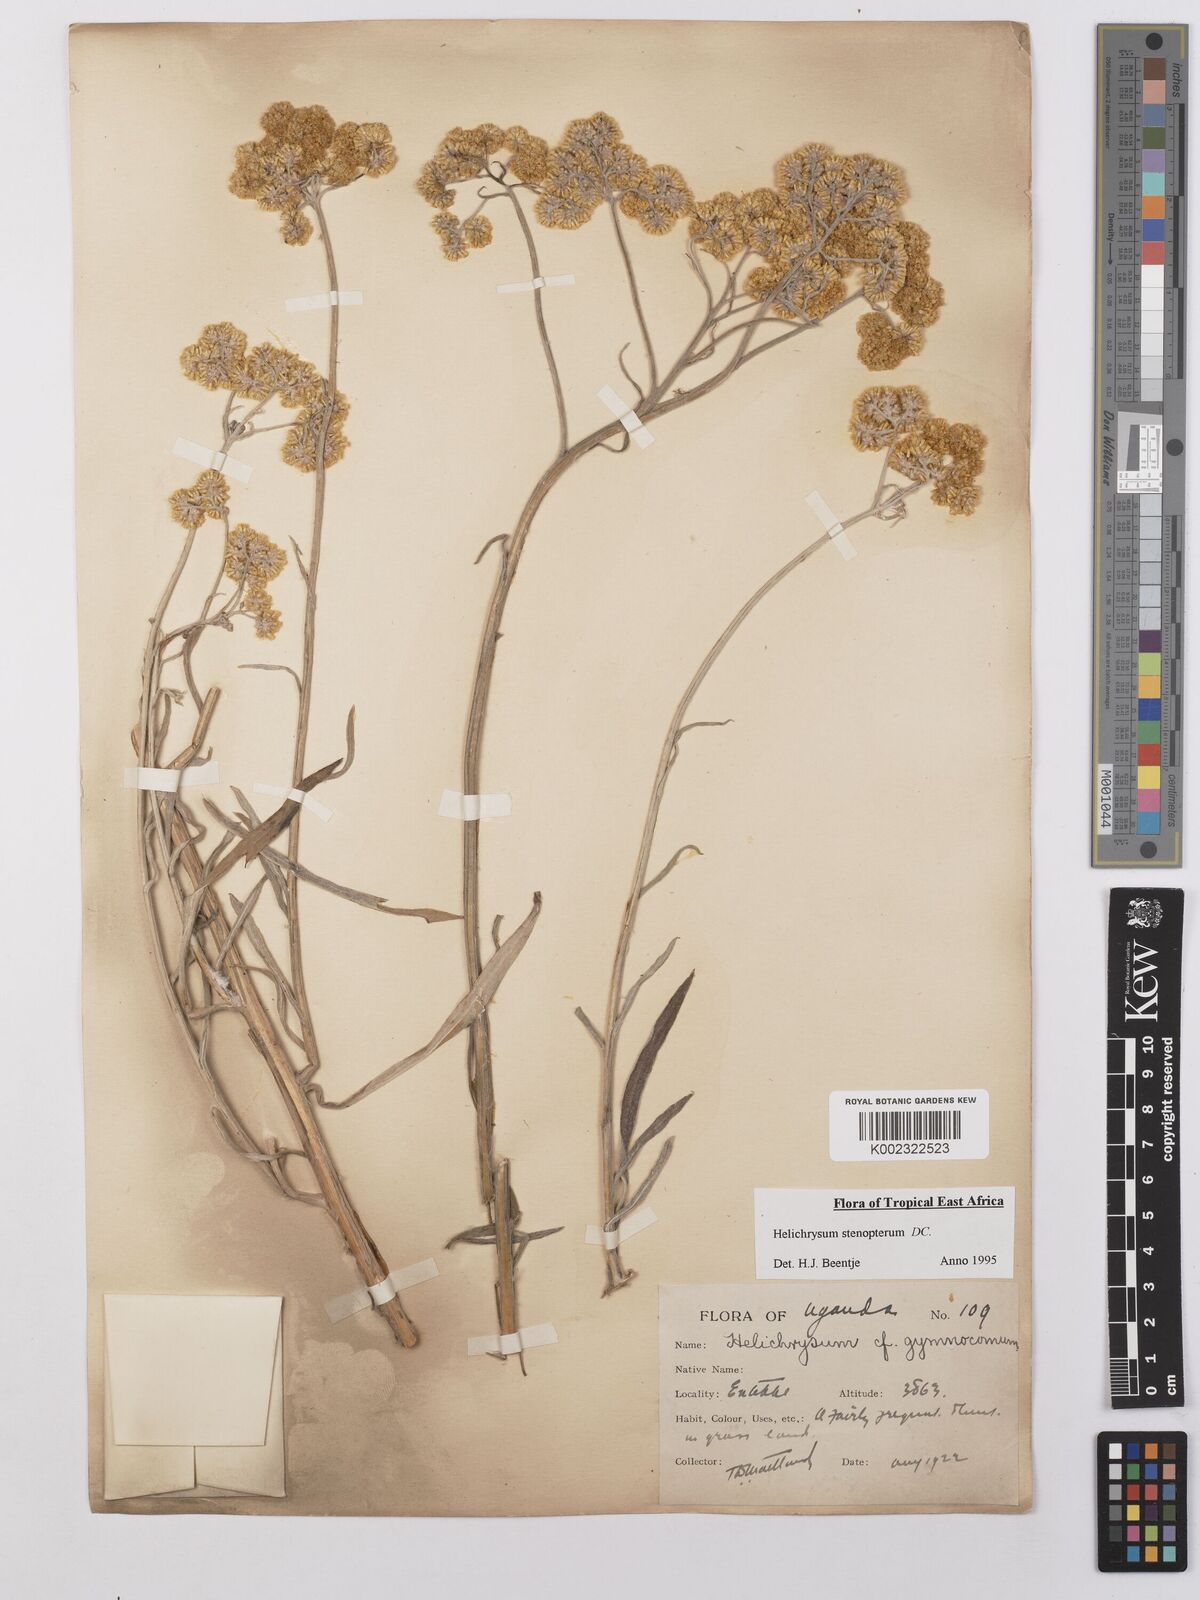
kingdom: Plantae
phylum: Tracheophyta
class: Magnoliopsida
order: Asterales
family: Asteraceae
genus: Helichrysum
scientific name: Helichrysum stenopterum
